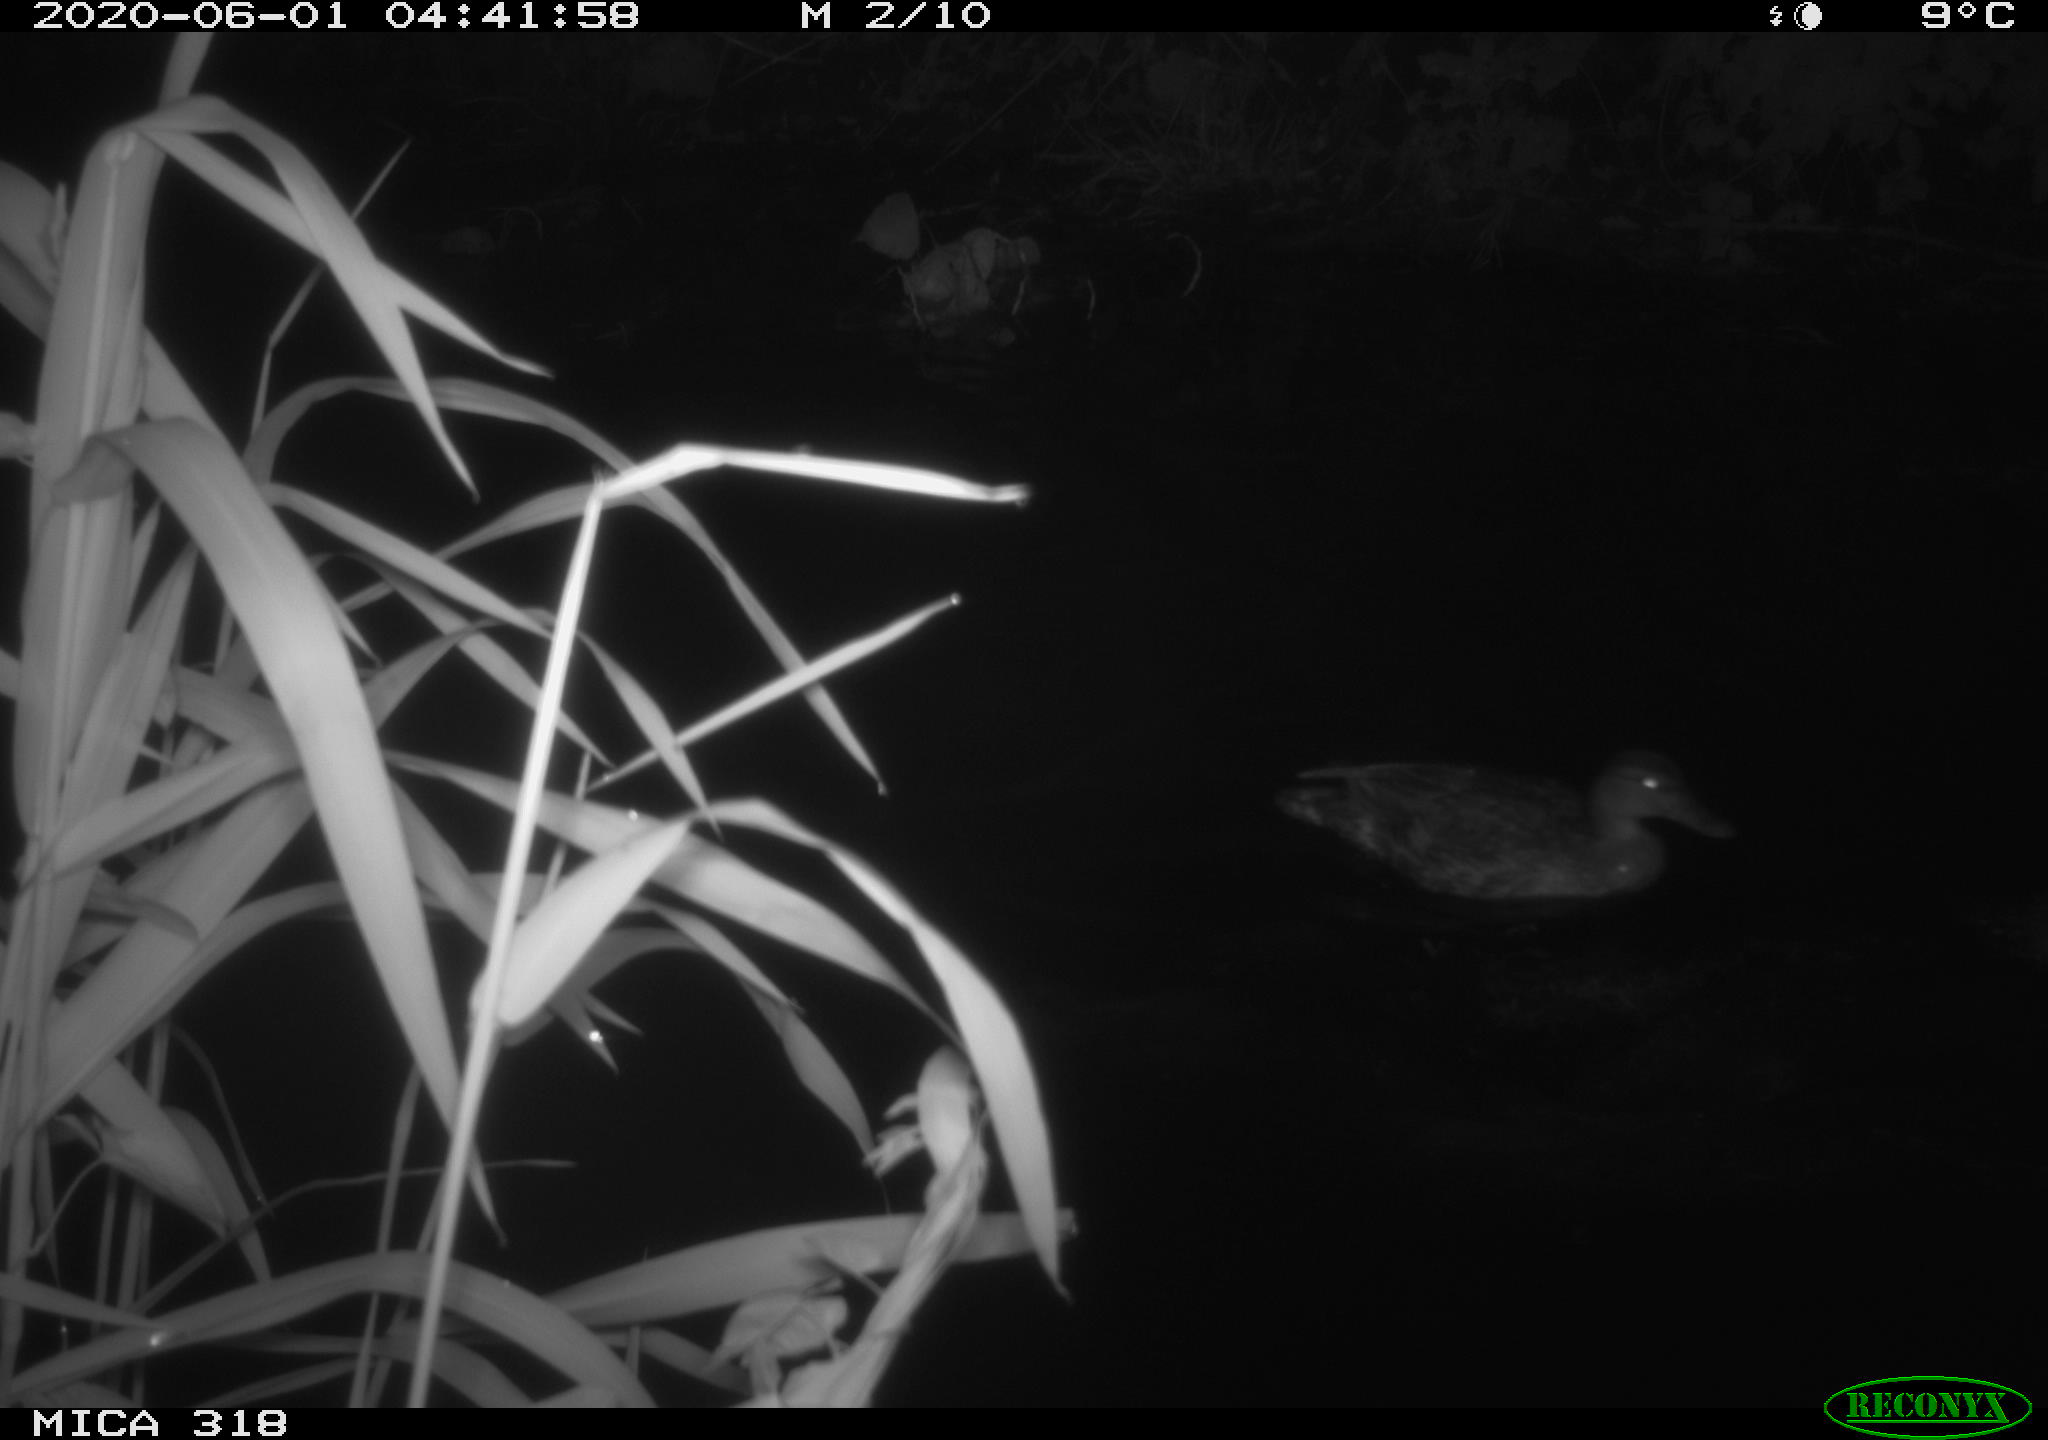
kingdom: Animalia
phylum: Chordata
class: Aves
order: Anseriformes
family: Anatidae
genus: Anas
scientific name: Anas platyrhynchos
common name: Mallard
